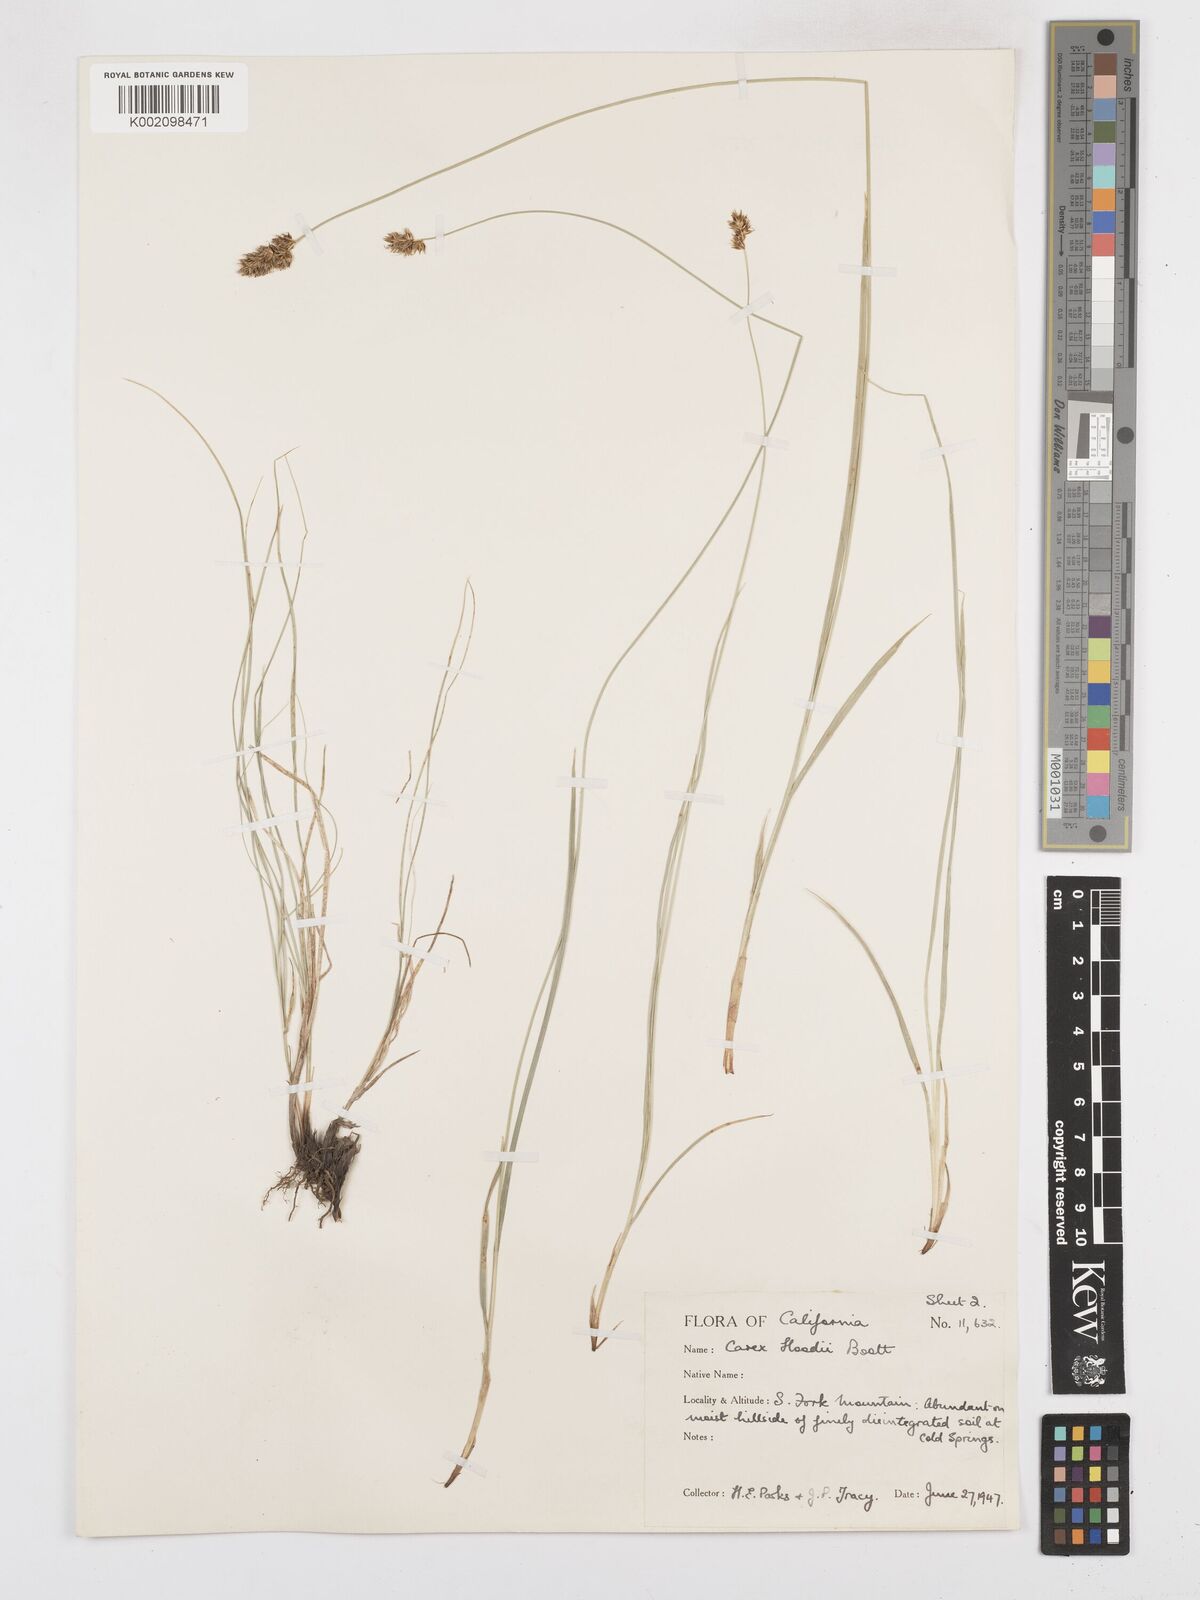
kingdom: Plantae
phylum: Tracheophyta
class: Liliopsida
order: Poales
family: Cyperaceae
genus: Carex
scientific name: Carex hoodii
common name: Hood's sedge
